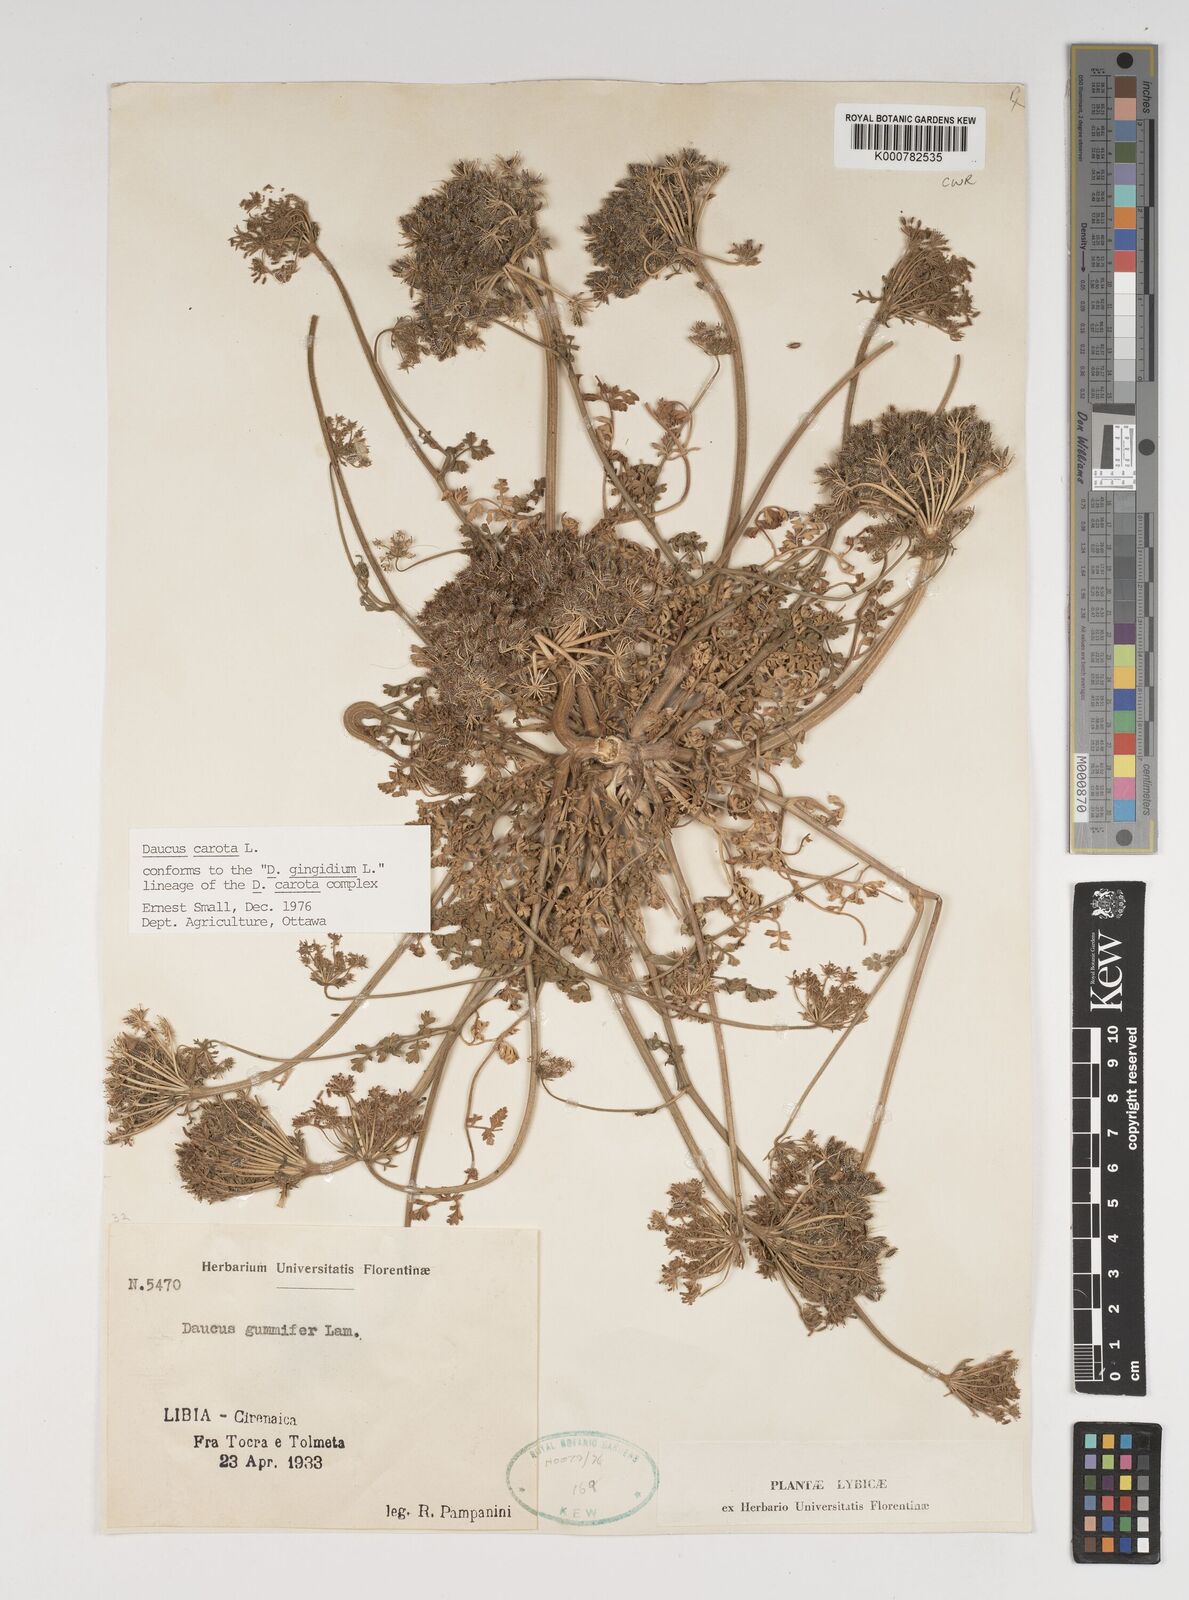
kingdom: Plantae
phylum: Tracheophyta
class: Magnoliopsida
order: Apiales
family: Apiaceae
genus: Daucus
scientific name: Daucus carota
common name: Wild carrot
